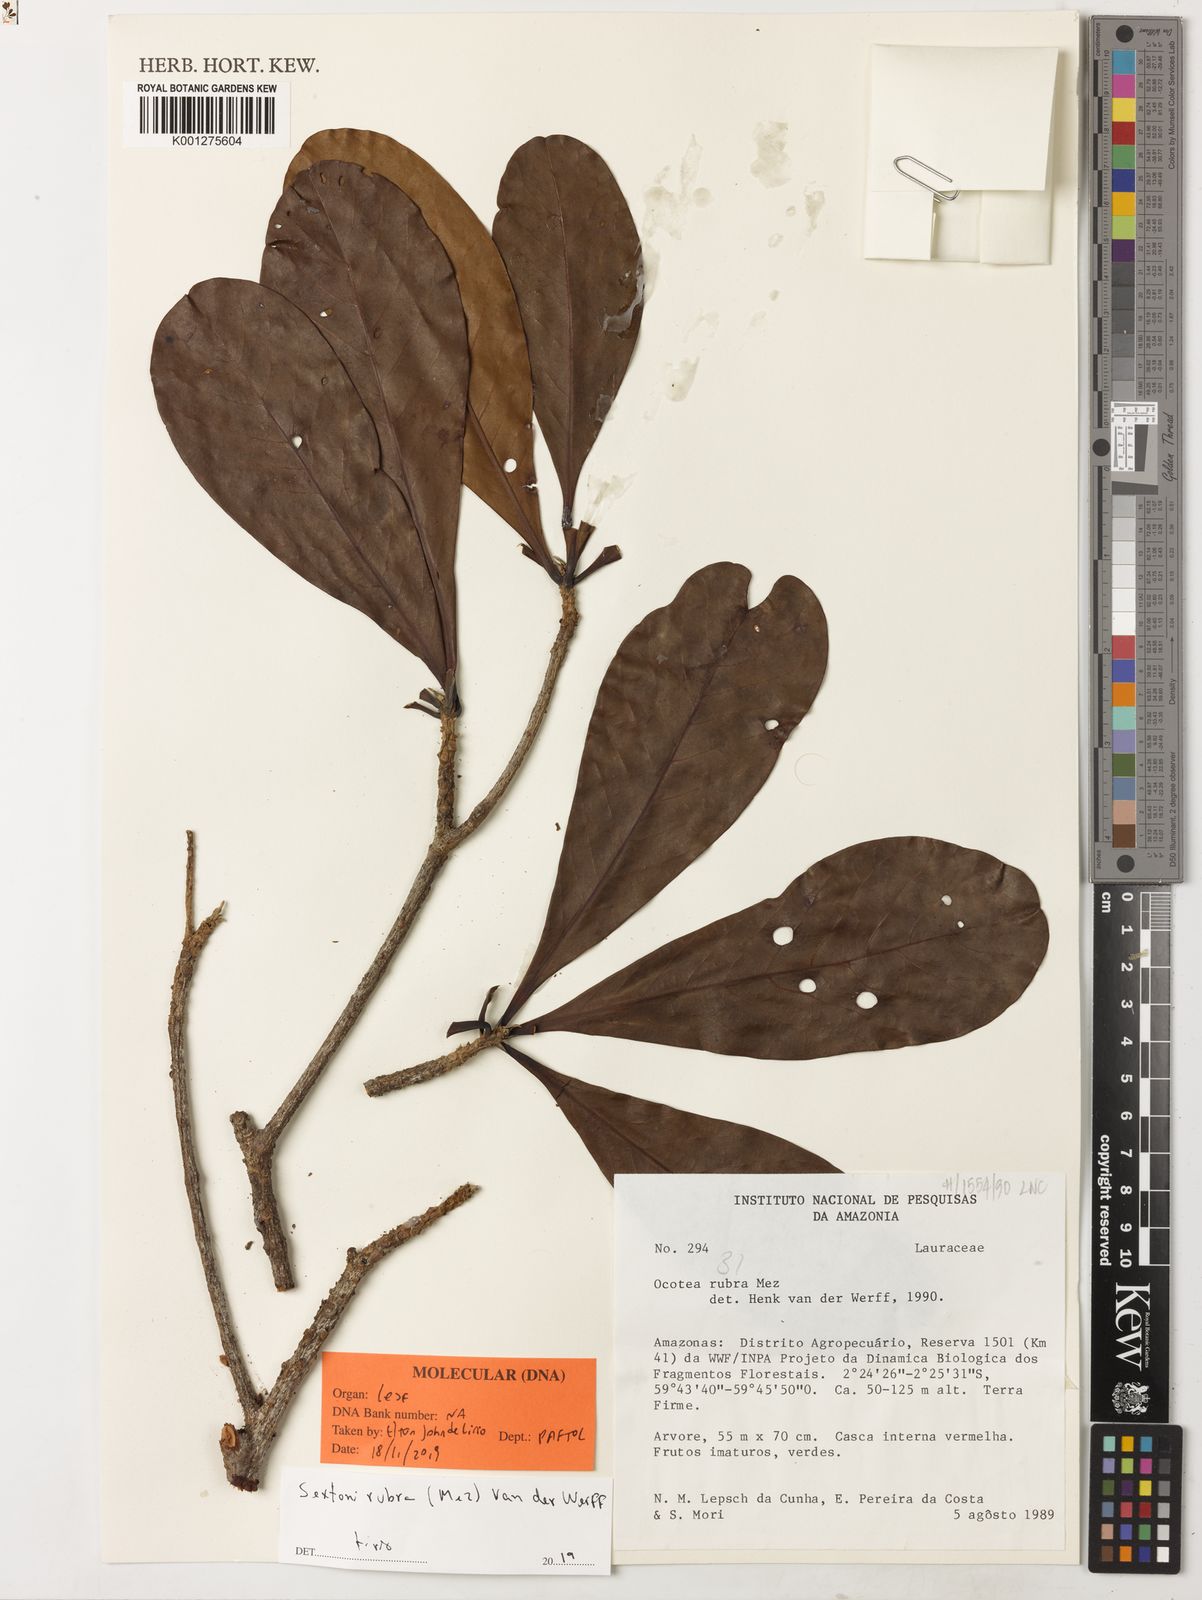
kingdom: Plantae
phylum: Tracheophyta
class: Magnoliopsida
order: Laurales
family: Lauraceae
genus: Sextonia
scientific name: Sextonia rubra
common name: Red louro
